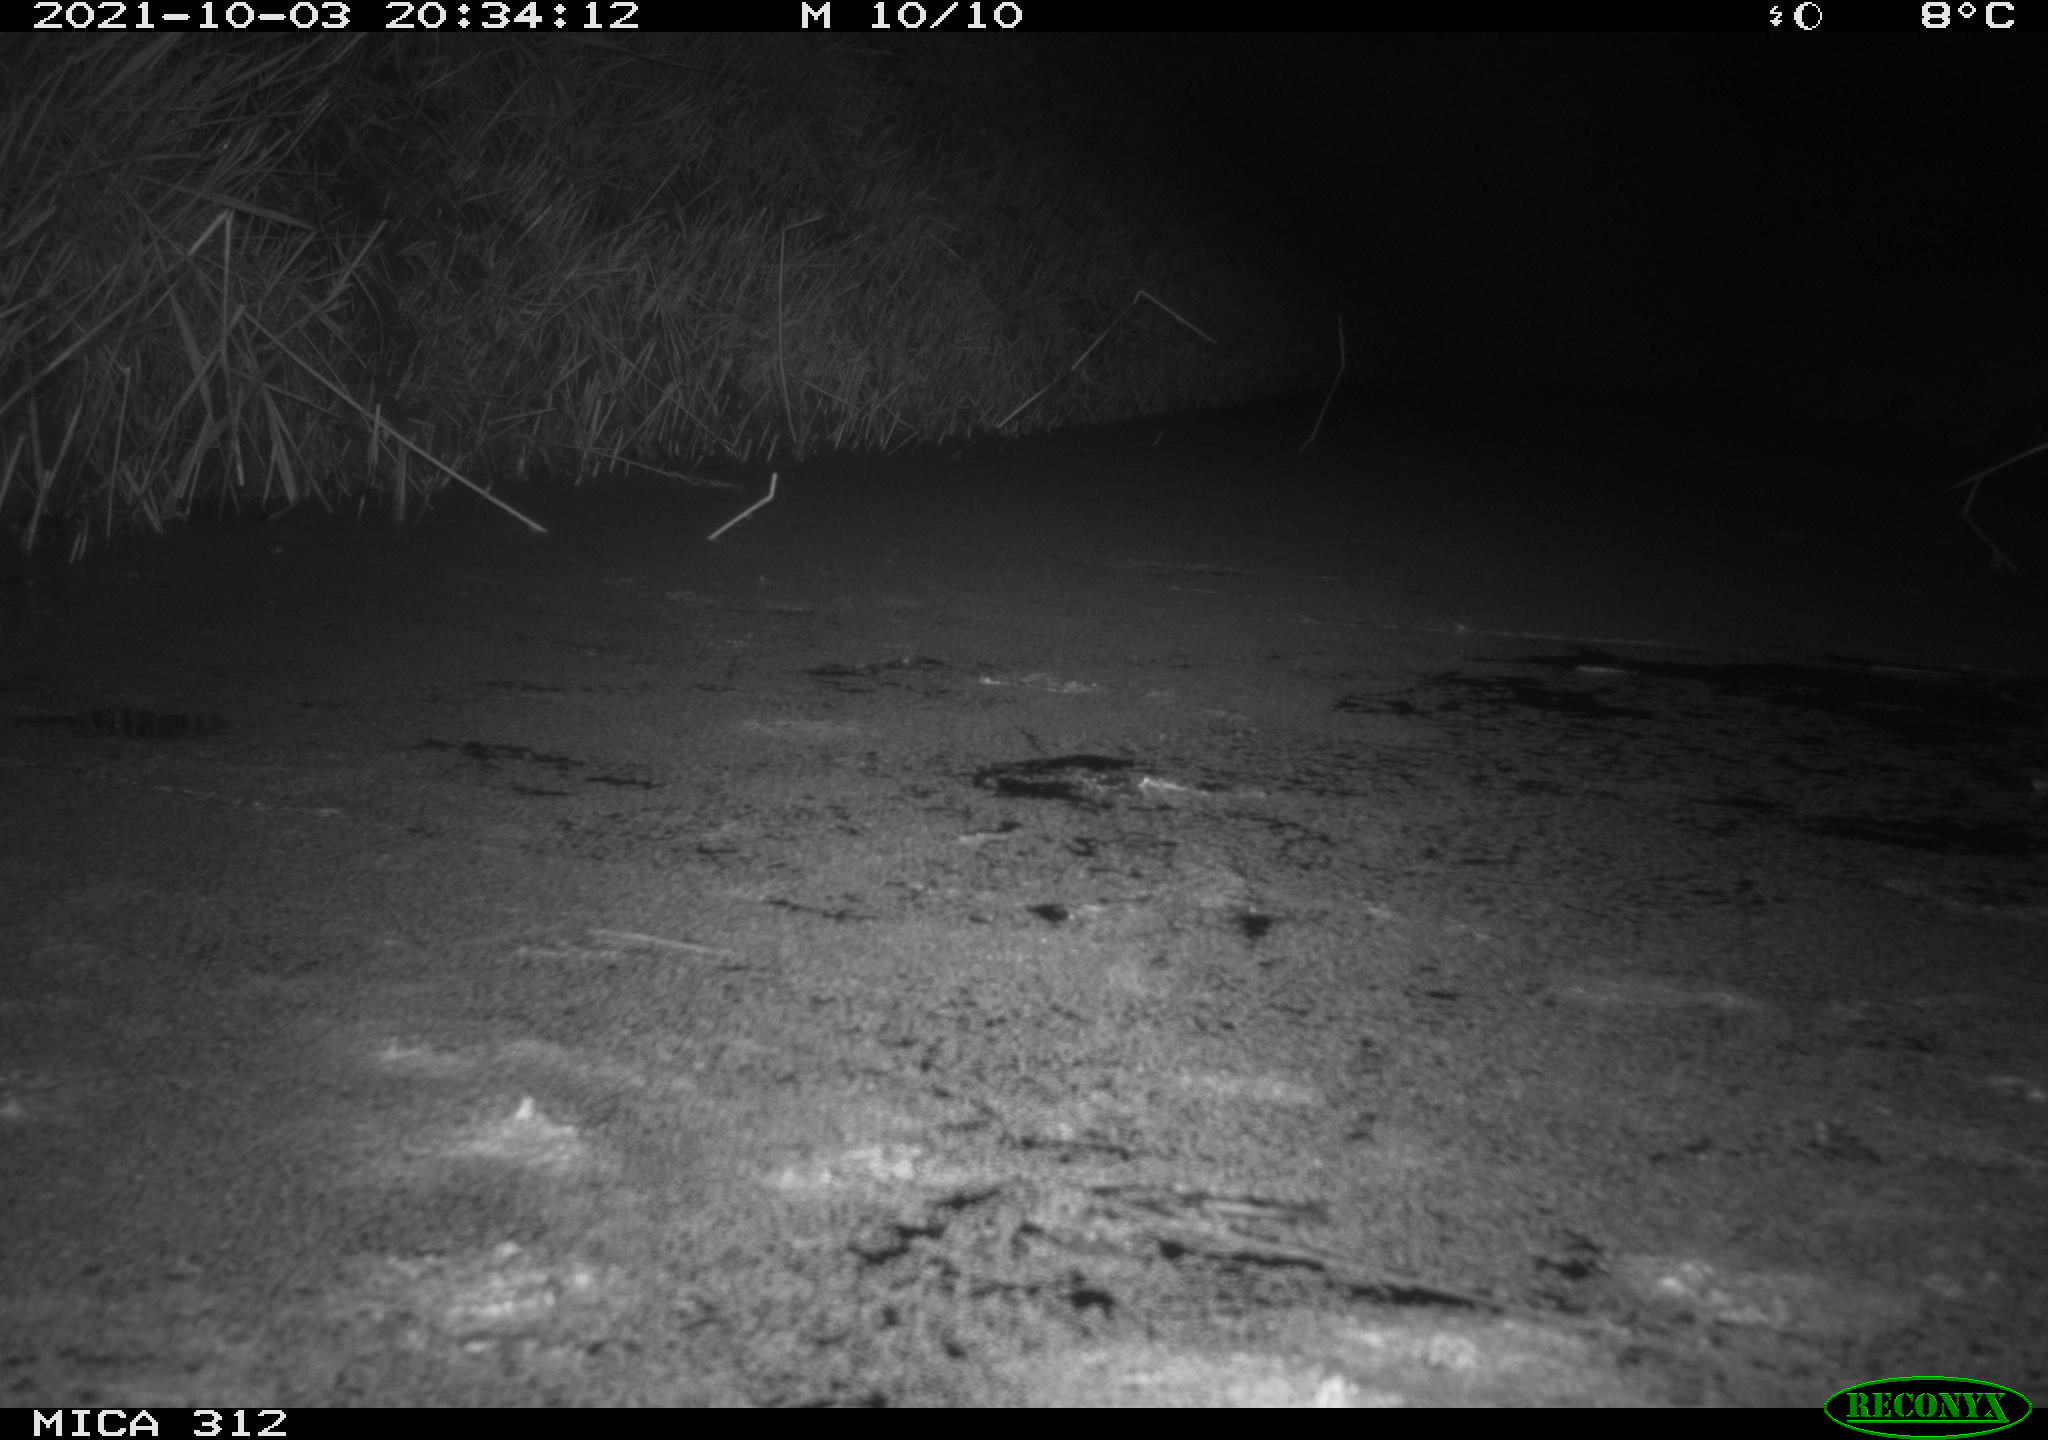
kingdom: Animalia
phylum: Chordata
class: Mammalia
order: Rodentia
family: Muridae
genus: Rattus
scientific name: Rattus norvegicus
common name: Brown rat
